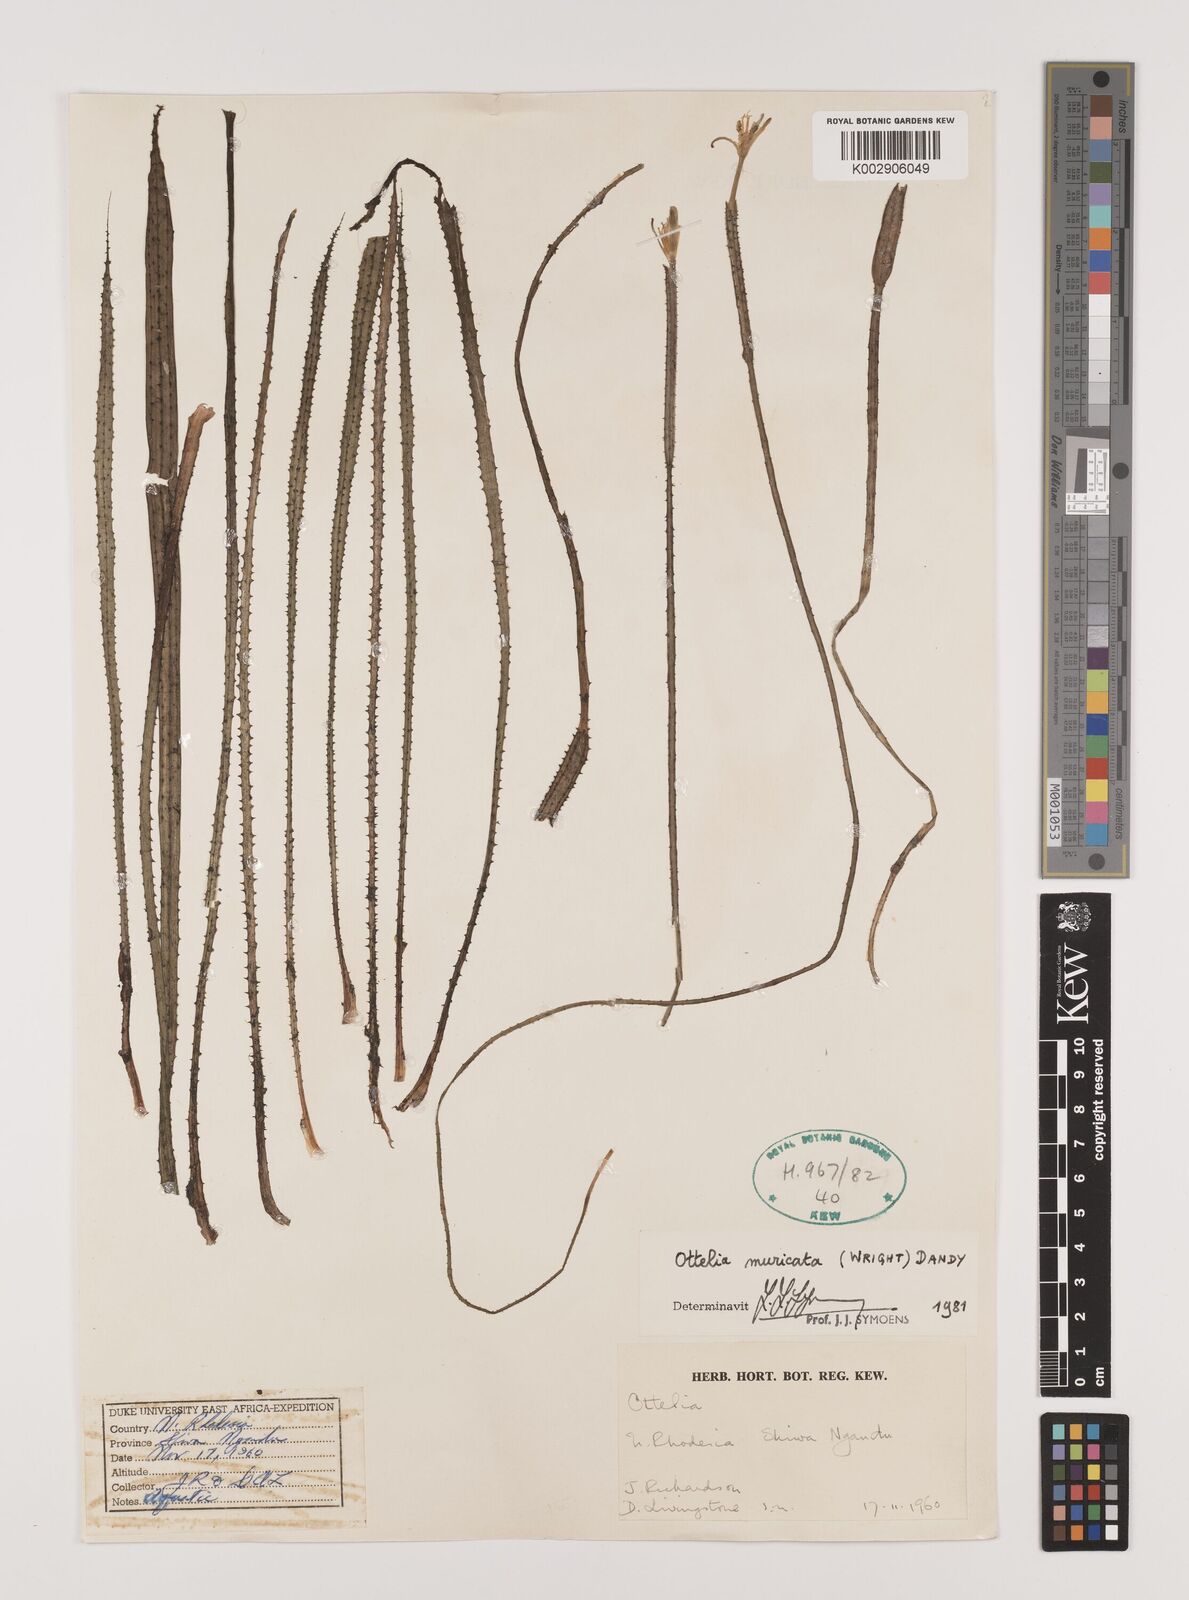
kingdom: Plantae
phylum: Tracheophyta
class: Liliopsida
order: Alismatales
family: Hydrocharitaceae
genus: Ottelia
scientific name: Ottelia muricata
